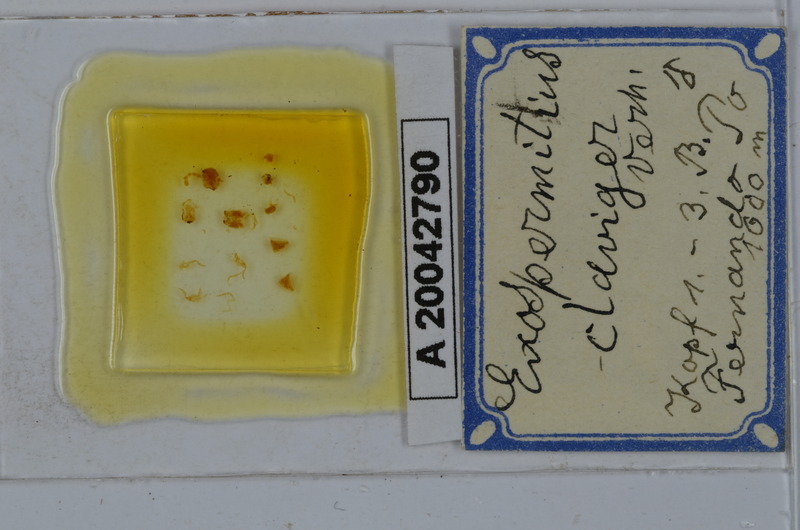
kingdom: Animalia
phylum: Arthropoda
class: Diplopoda
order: Spirostreptida
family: Spirostreptidae
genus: Exospermitius
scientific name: Exospermitius claviger
